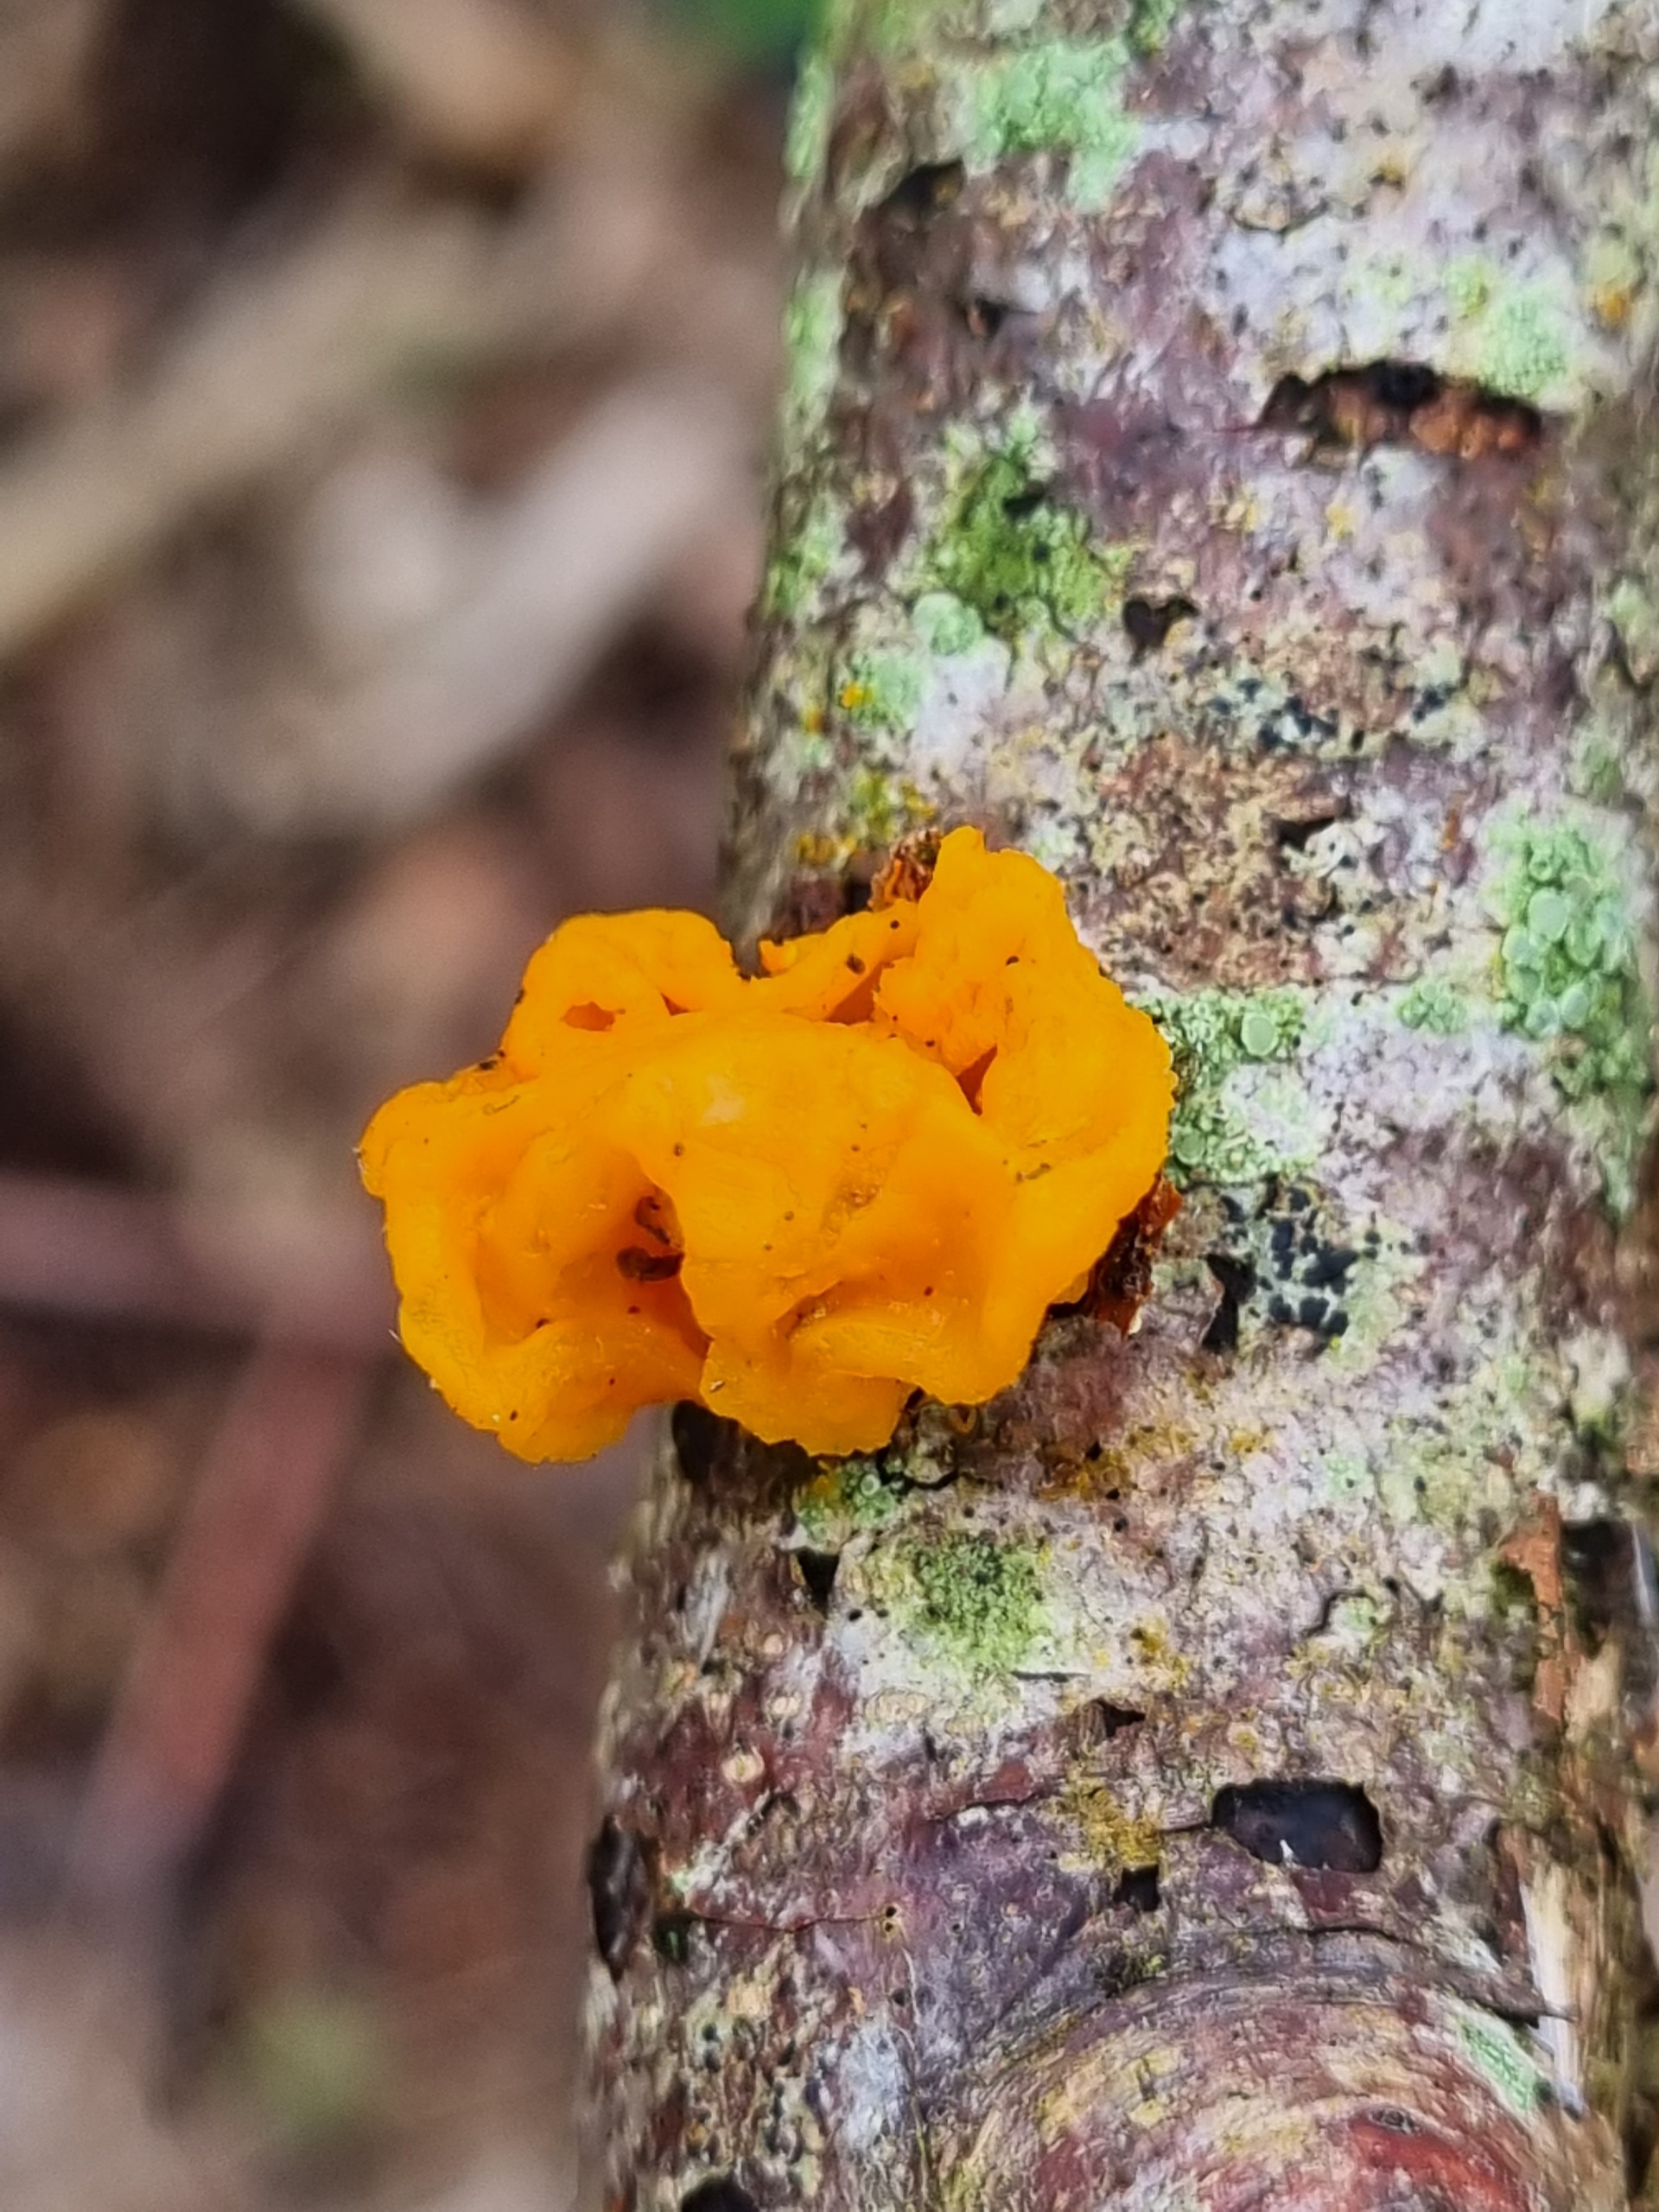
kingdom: Fungi
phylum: Basidiomycota
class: Tremellomycetes
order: Tremellales
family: Tremellaceae
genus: Tremella
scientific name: Tremella mesenterica
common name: Gul bævresvamp
